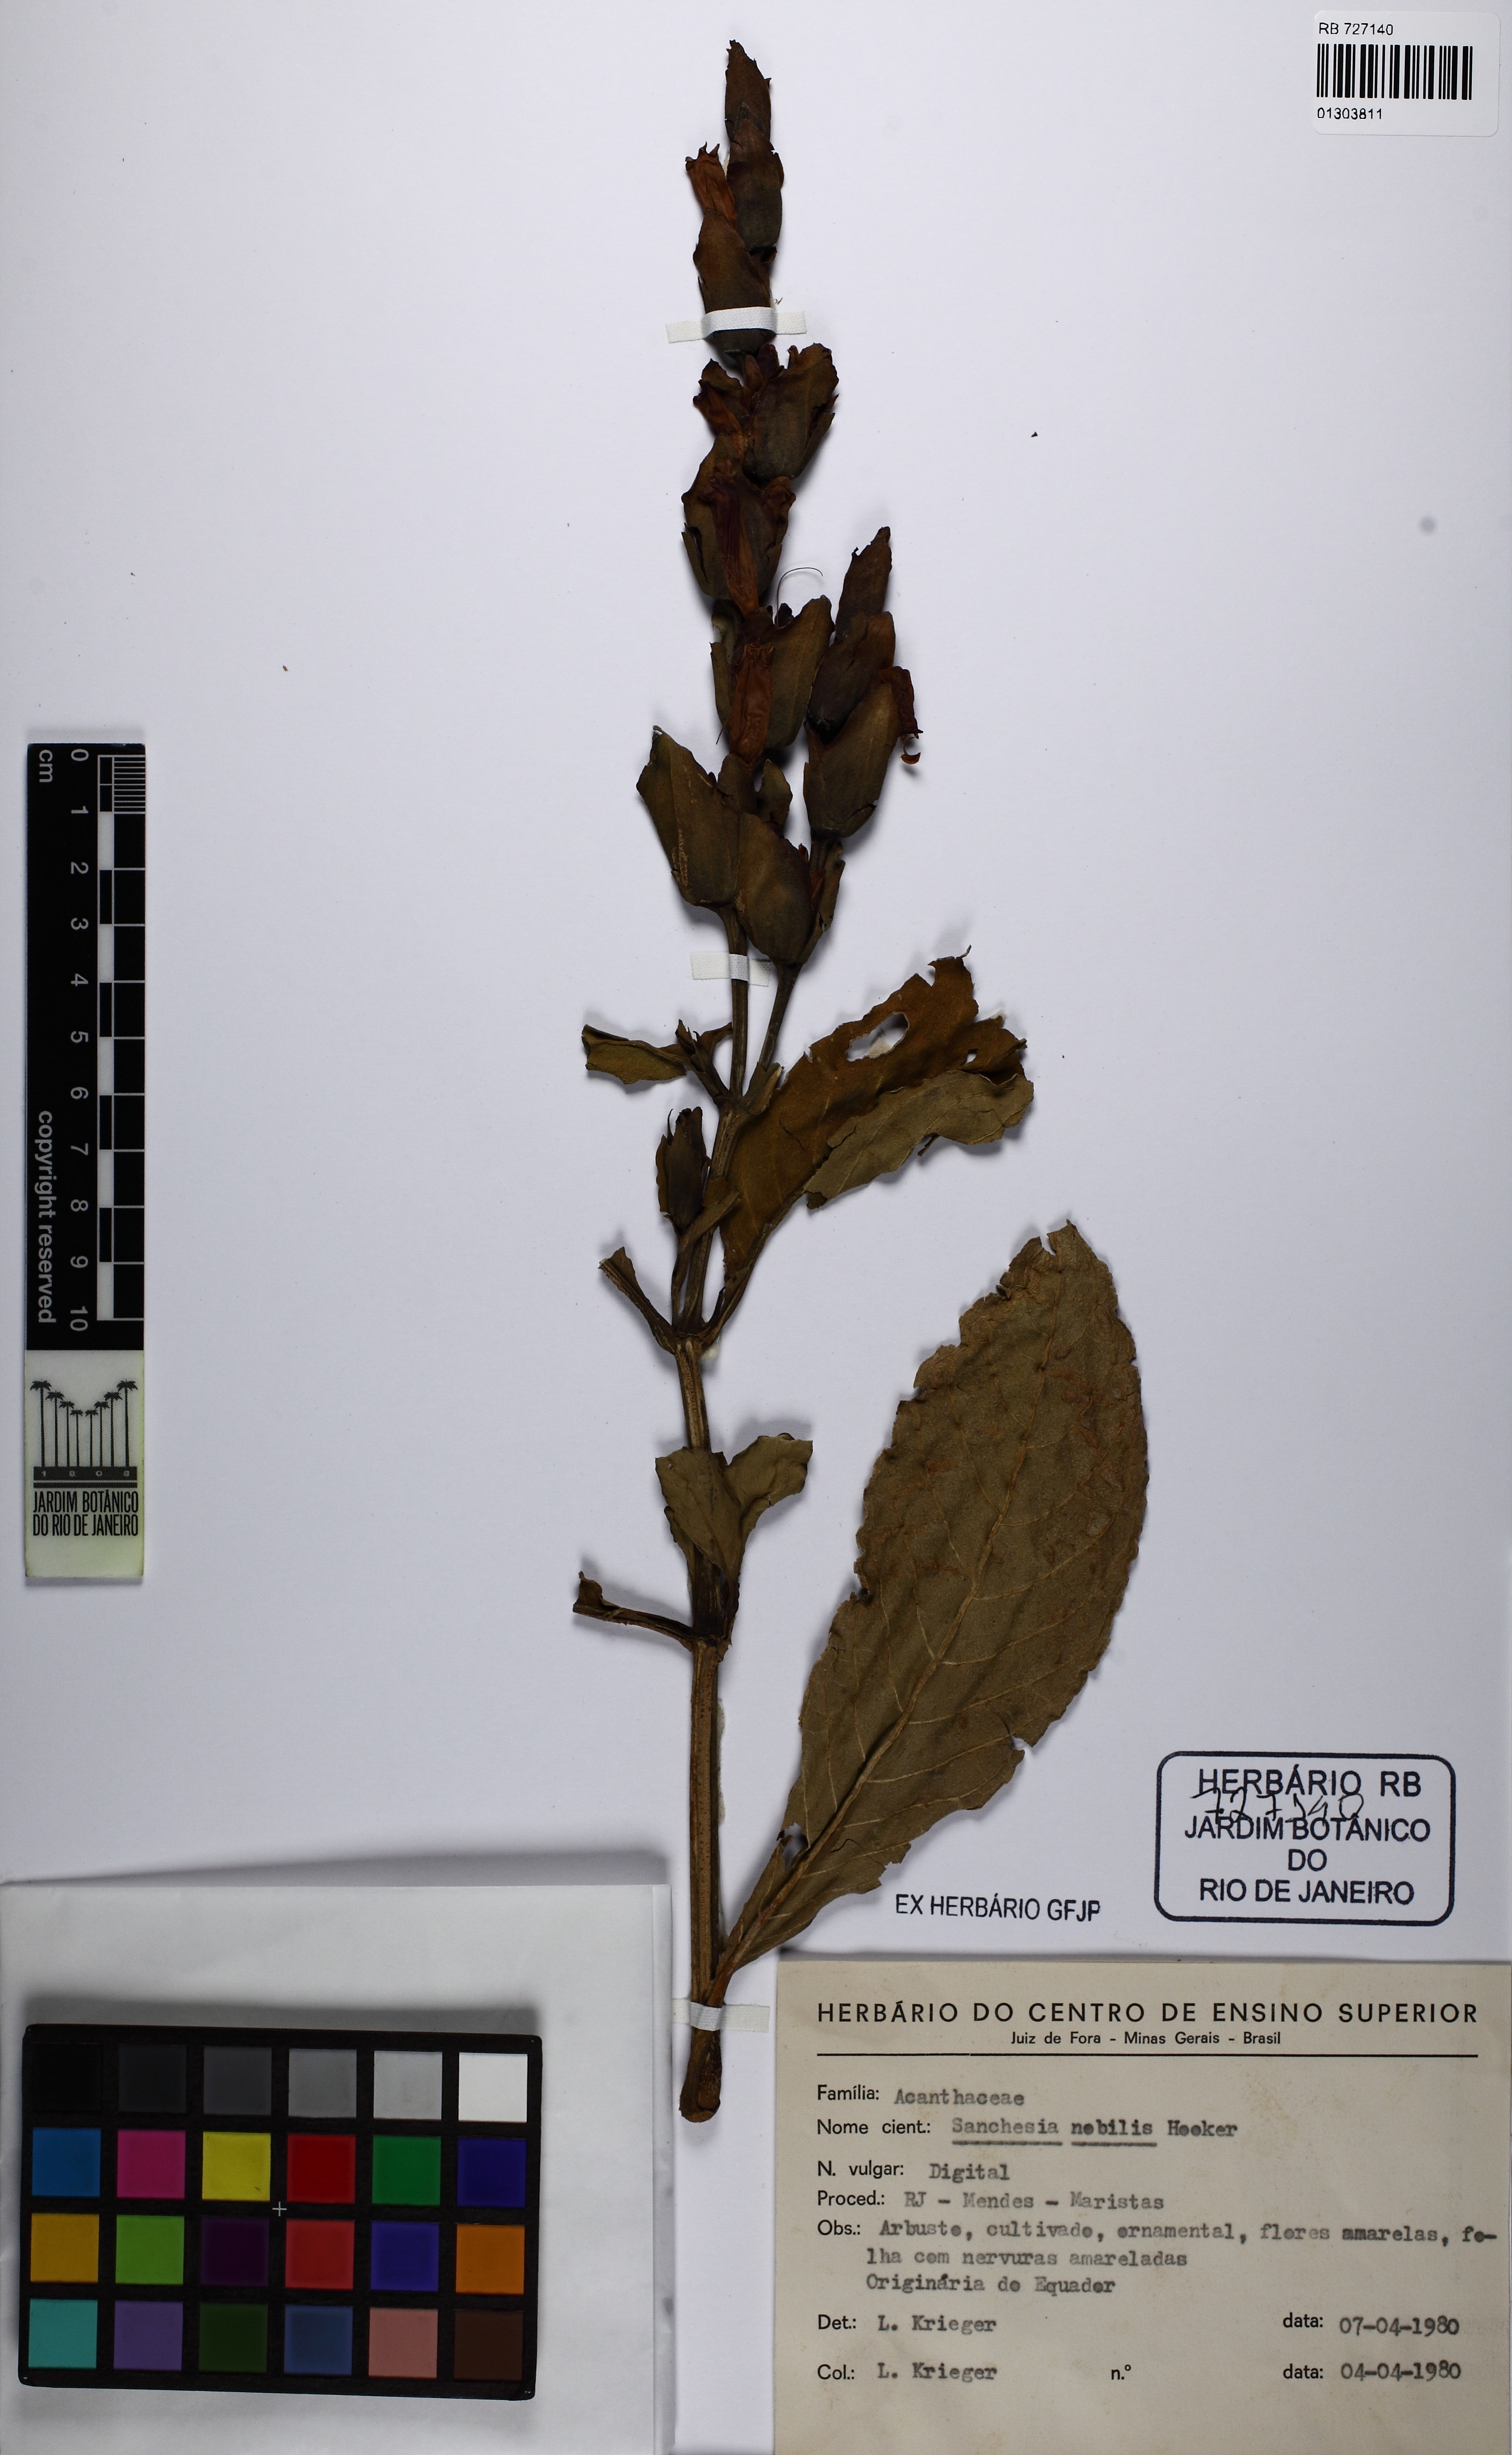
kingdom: Plantae
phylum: Tracheophyta
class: Magnoliopsida
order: Lamiales
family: Acanthaceae
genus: Sanchezia
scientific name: Sanchezia oblonga
